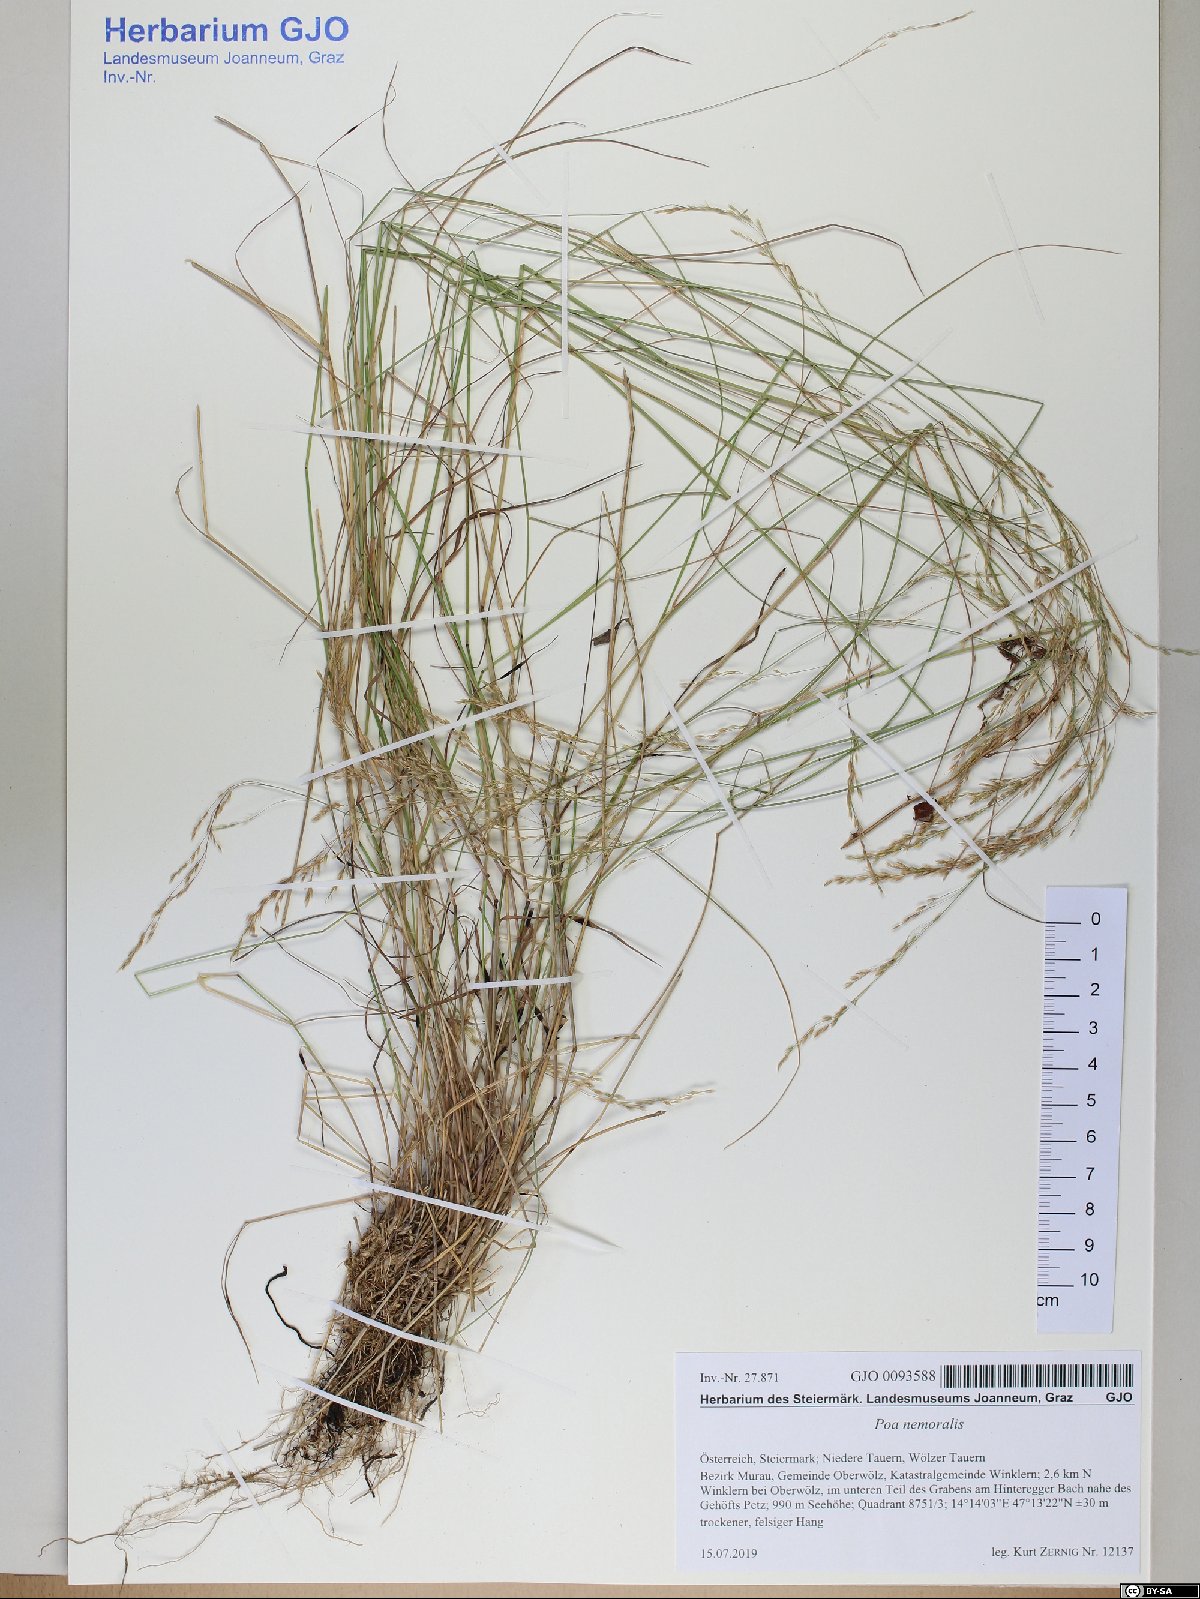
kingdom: Plantae
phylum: Tracheophyta
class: Liliopsida
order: Poales
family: Poaceae
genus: Poa
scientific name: Poa nemoralis
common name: Wood bluegrass
